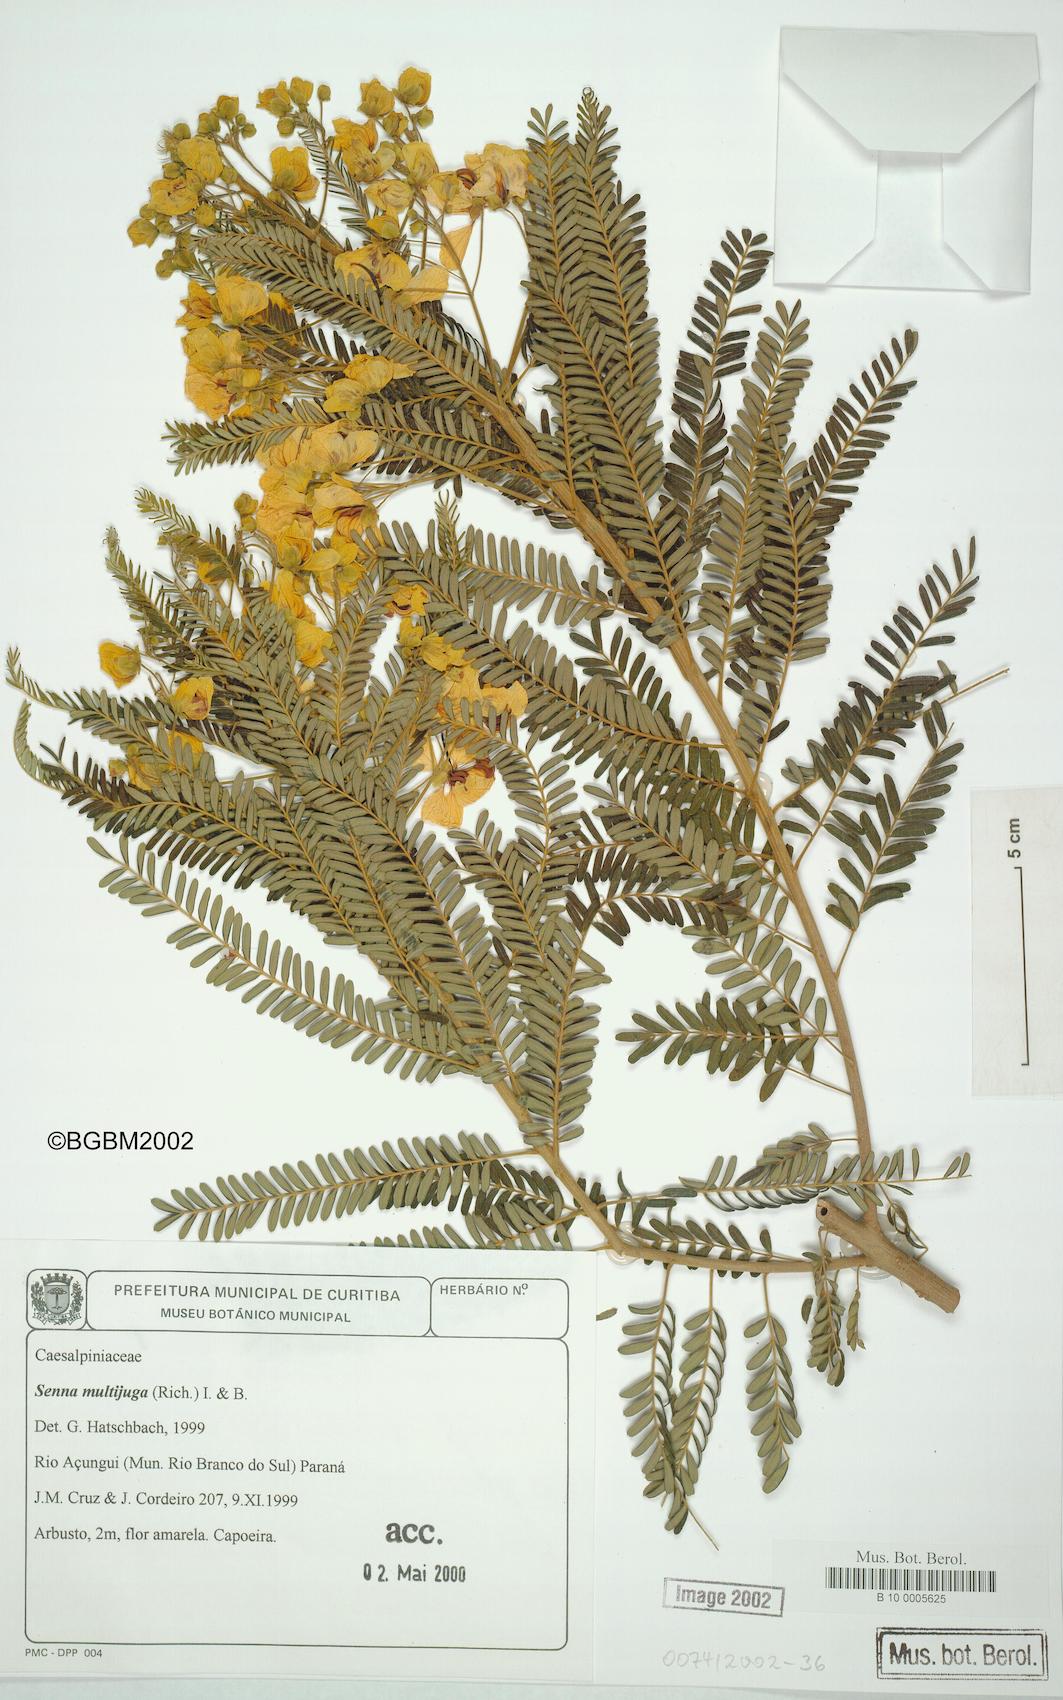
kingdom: Plantae
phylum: Tracheophyta
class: Magnoliopsida
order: Fabales
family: Fabaceae
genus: Senna
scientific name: Senna multijuga
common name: False sicklepod
